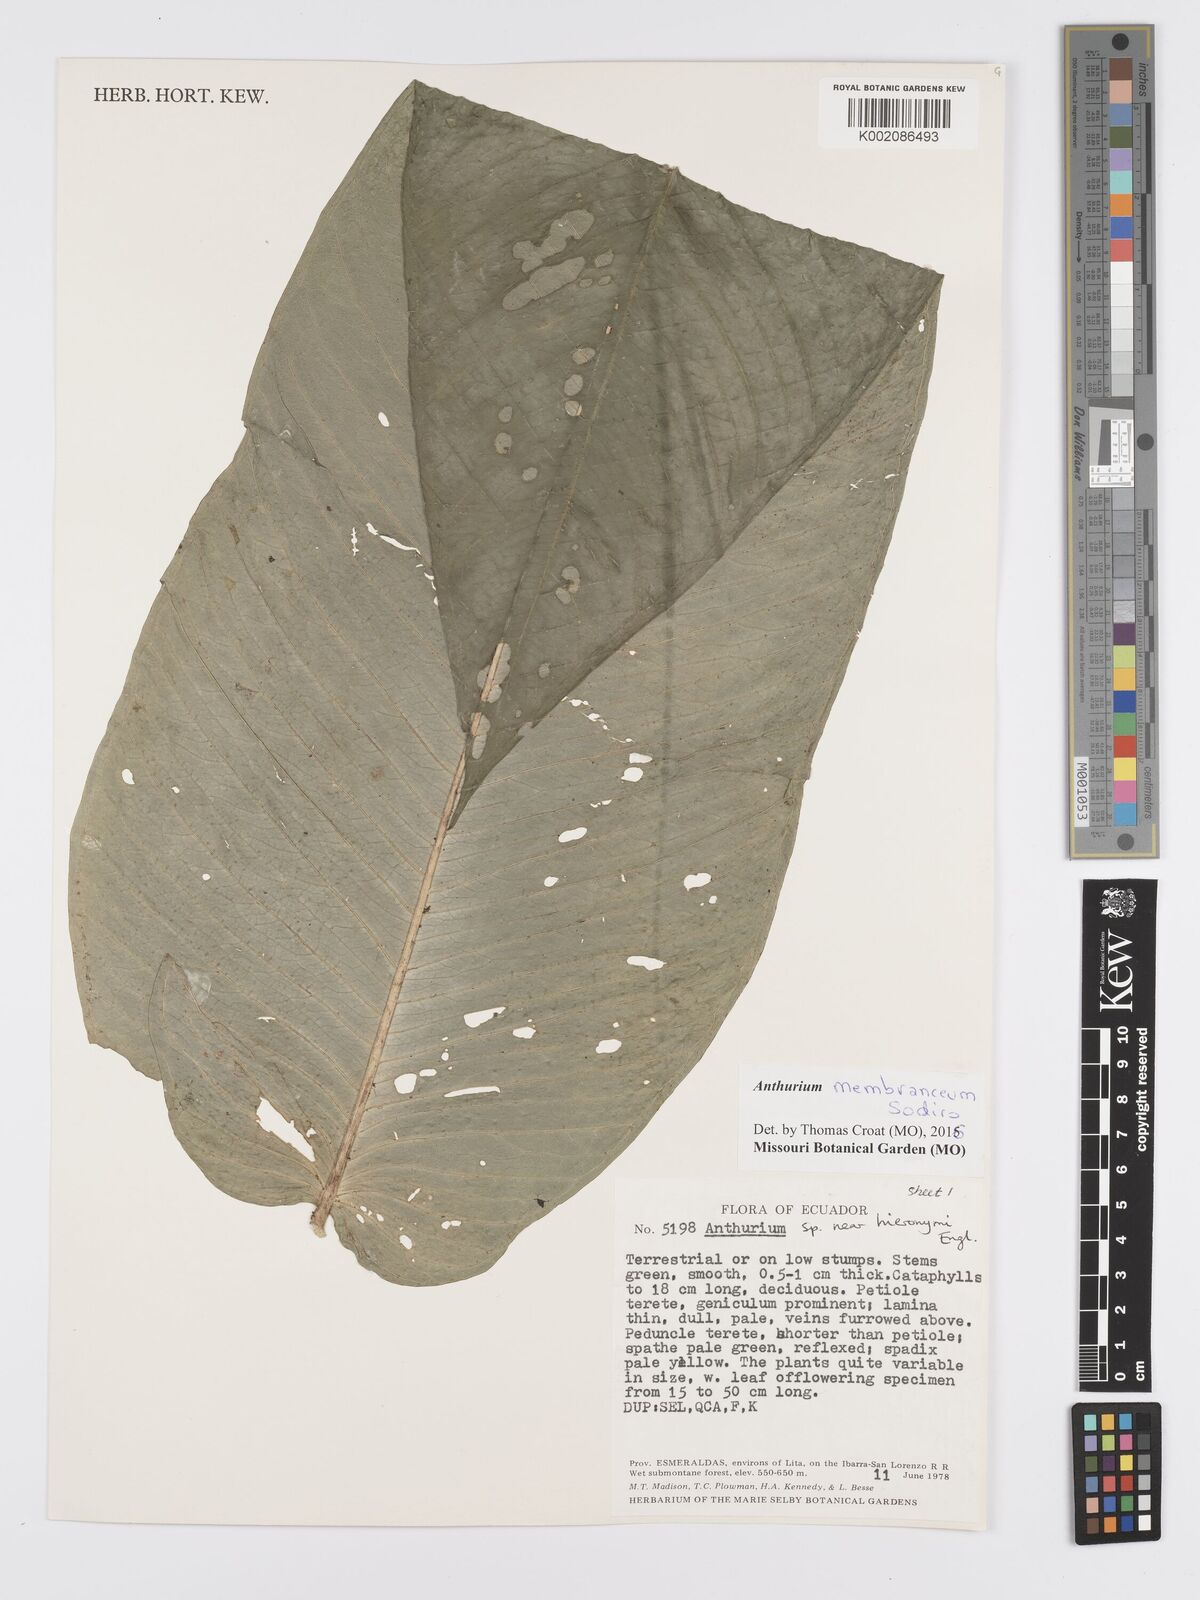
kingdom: Plantae
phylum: Tracheophyta
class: Liliopsida
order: Alismatales
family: Araceae
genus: Anthurium
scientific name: Anthurium membranaceum
